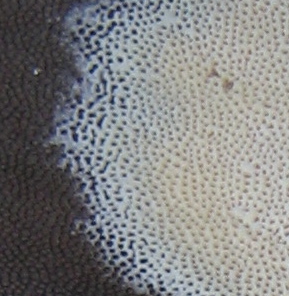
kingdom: Fungi
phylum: Basidiomycota
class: Agaricomycetes
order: Polyporales
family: Meripilaceae
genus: Meripilus
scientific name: Meripilus giganteus
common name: kæmpeporesvamp
